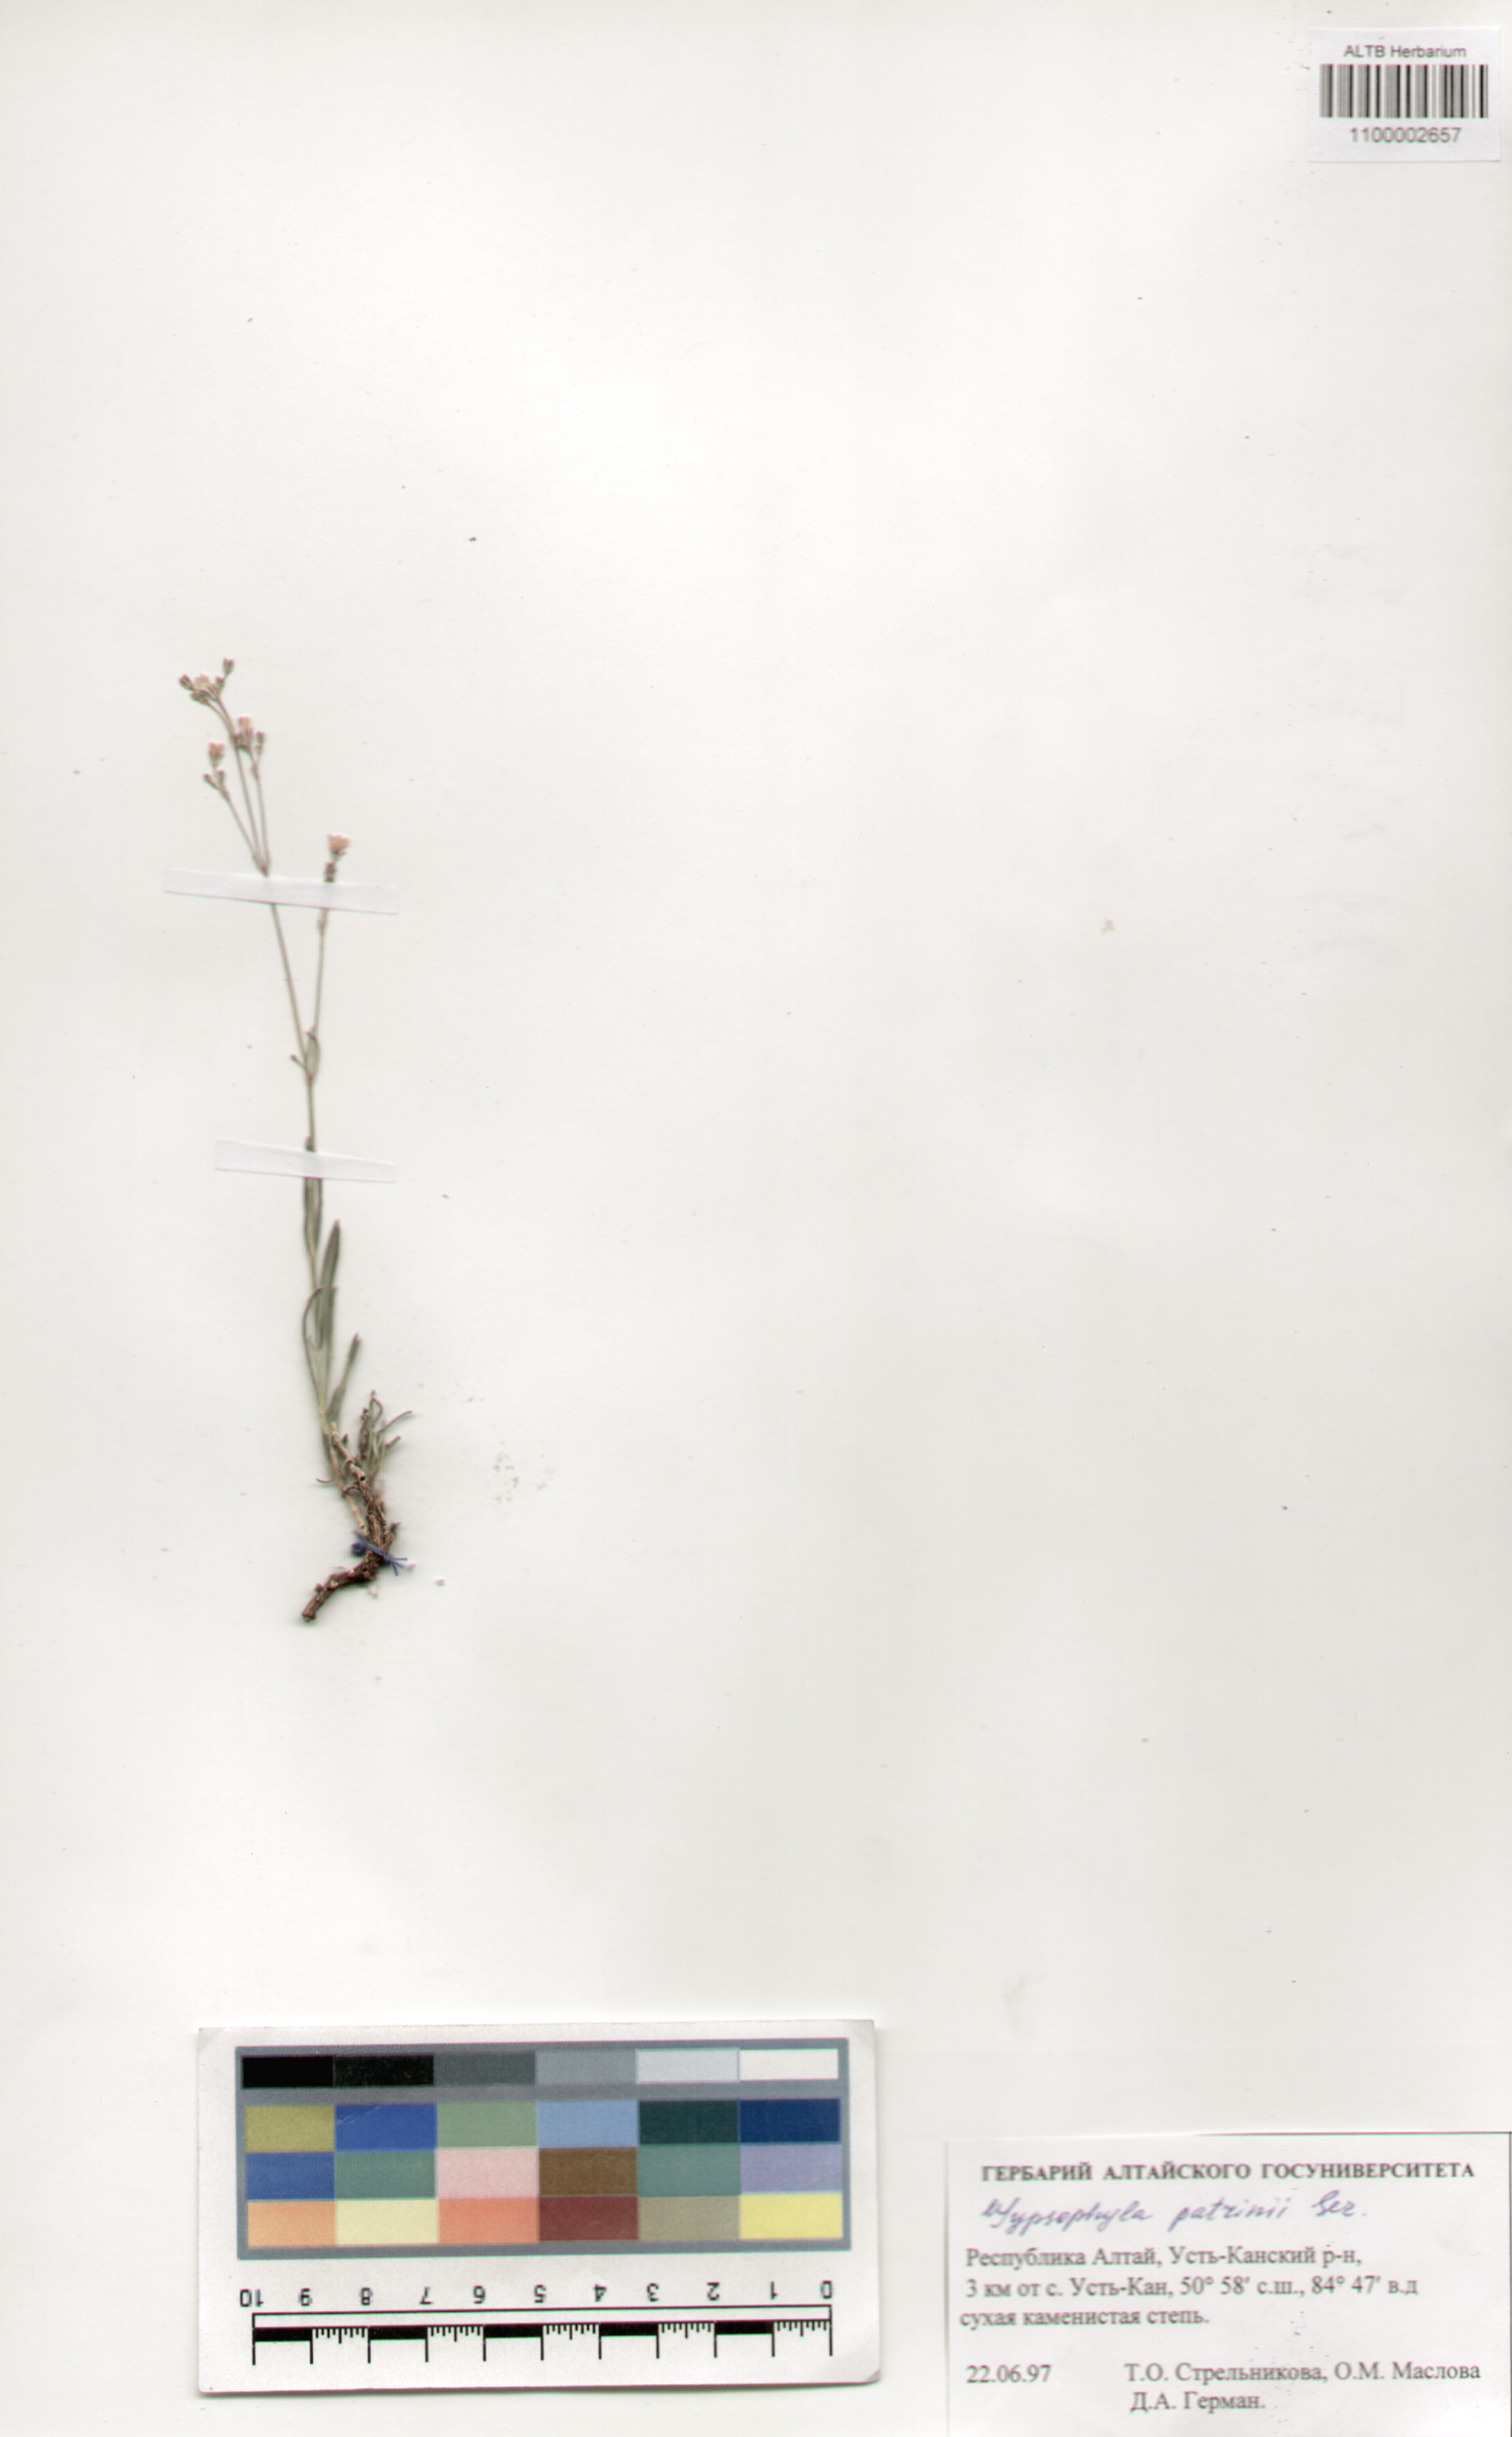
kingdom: Plantae
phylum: Tracheophyta
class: Magnoliopsida
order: Caryophyllales
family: Caryophyllaceae
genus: Gypsophila
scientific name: Gypsophila patrinii
